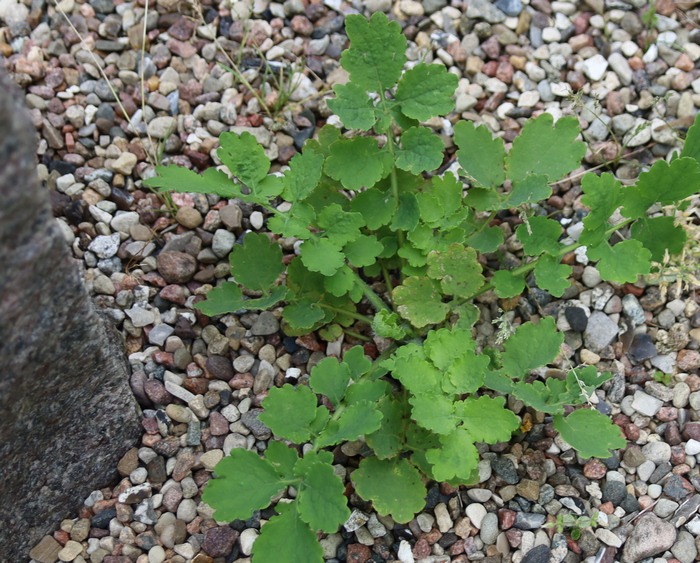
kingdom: Plantae
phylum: Tracheophyta
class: Magnoliopsida
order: Ranunculales
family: Papaveraceae
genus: Chelidonium
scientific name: Chelidonium majus
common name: Svaleurt
